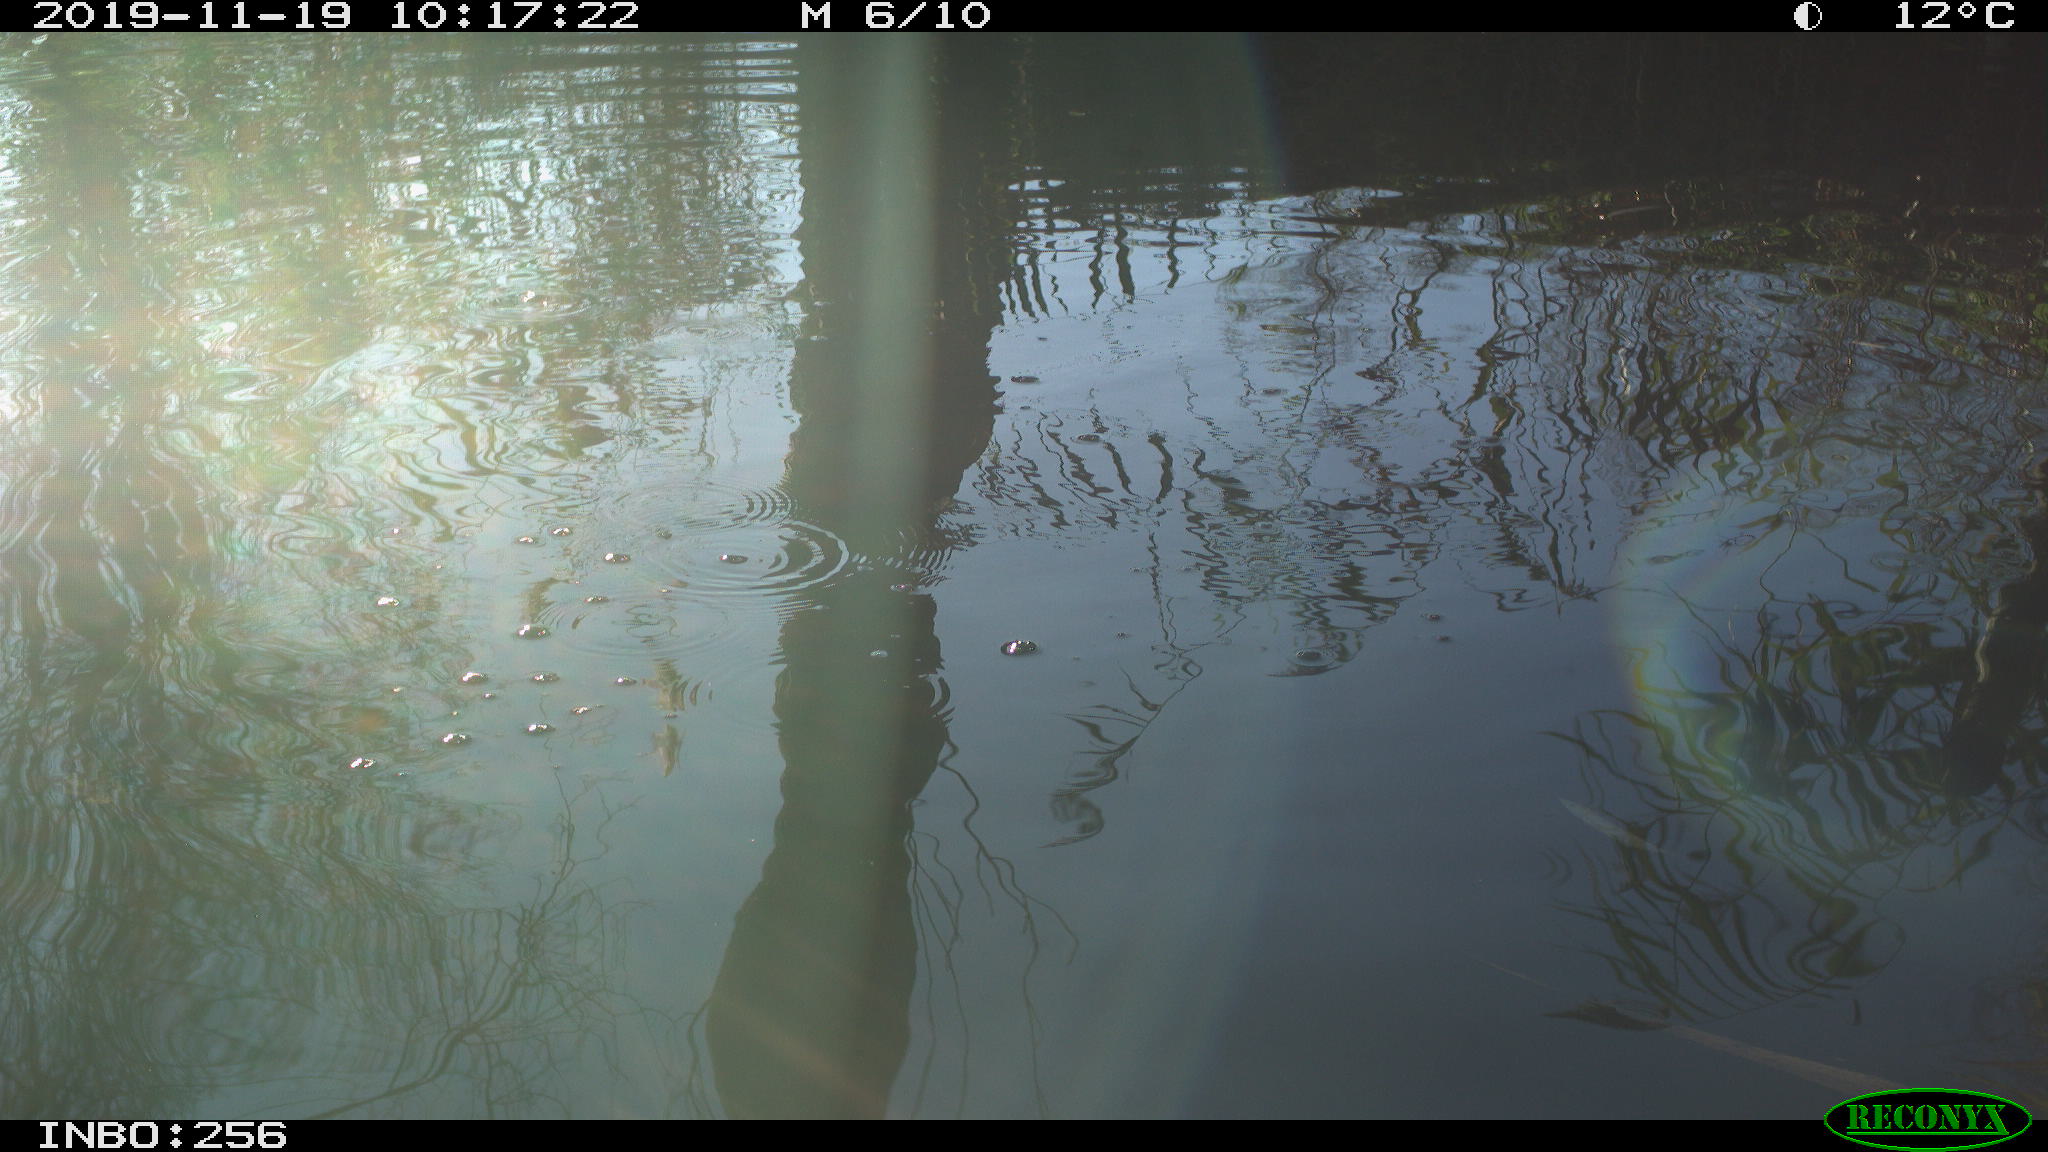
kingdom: Animalia
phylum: Chordata
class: Aves
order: Gruiformes
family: Rallidae
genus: Gallinula
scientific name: Gallinula chloropus
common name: Common moorhen
